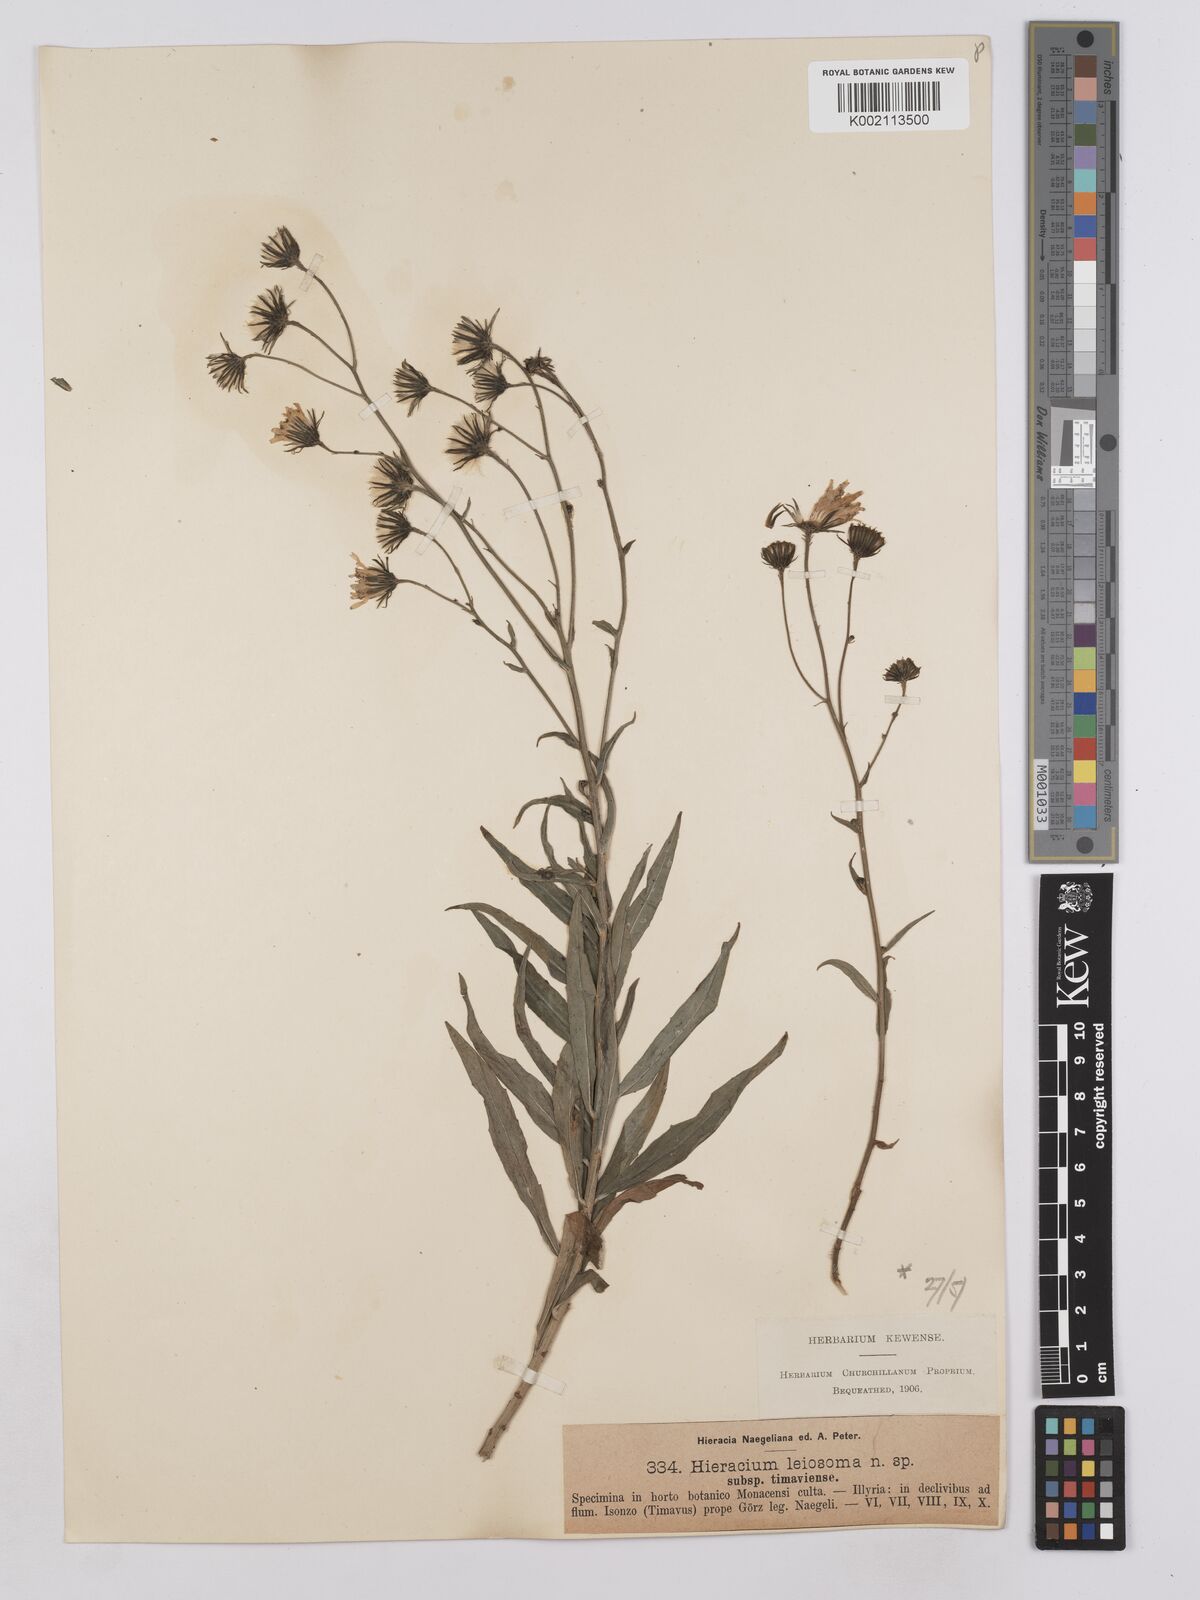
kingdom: Plantae
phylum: Tracheophyta
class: Magnoliopsida
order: Asterales
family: Asteraceae
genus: Hieracium
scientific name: Hieracium leiocephalum
